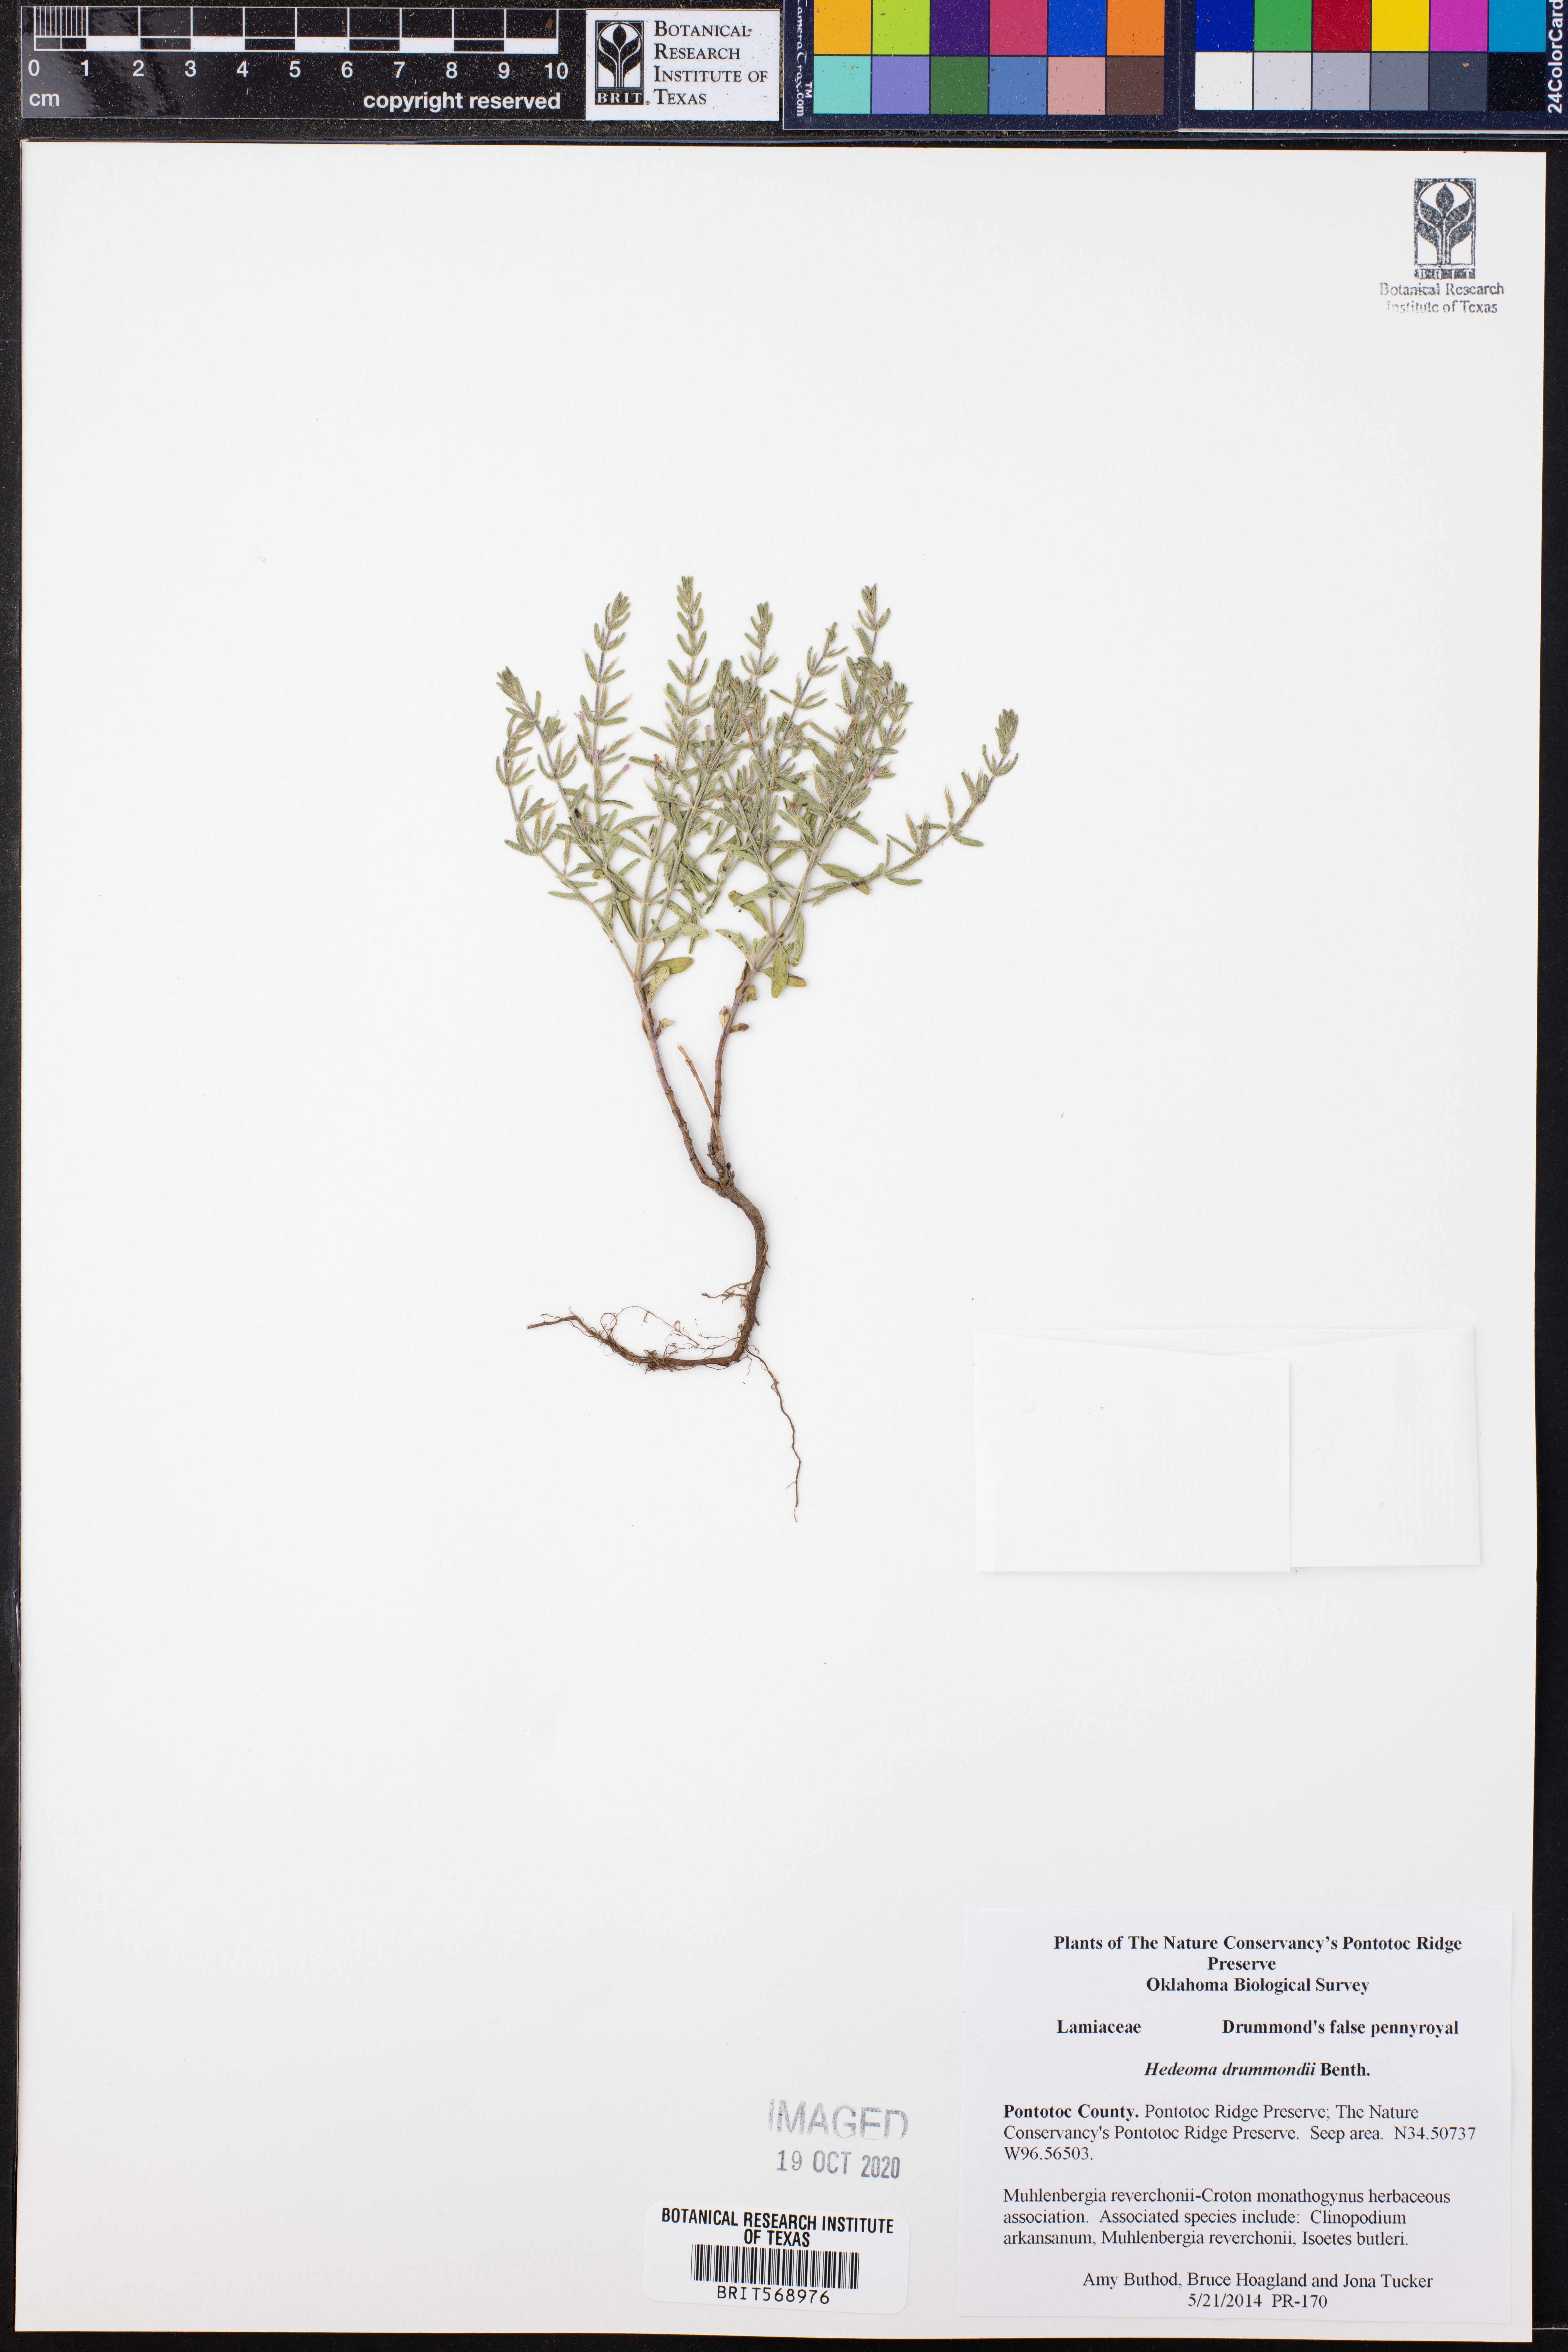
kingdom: Plantae
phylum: Tracheophyta
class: Magnoliopsida
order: Lamiales
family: Lamiaceae
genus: Hedeoma
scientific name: Hedeoma drummondii
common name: New mexico pennyroyal
